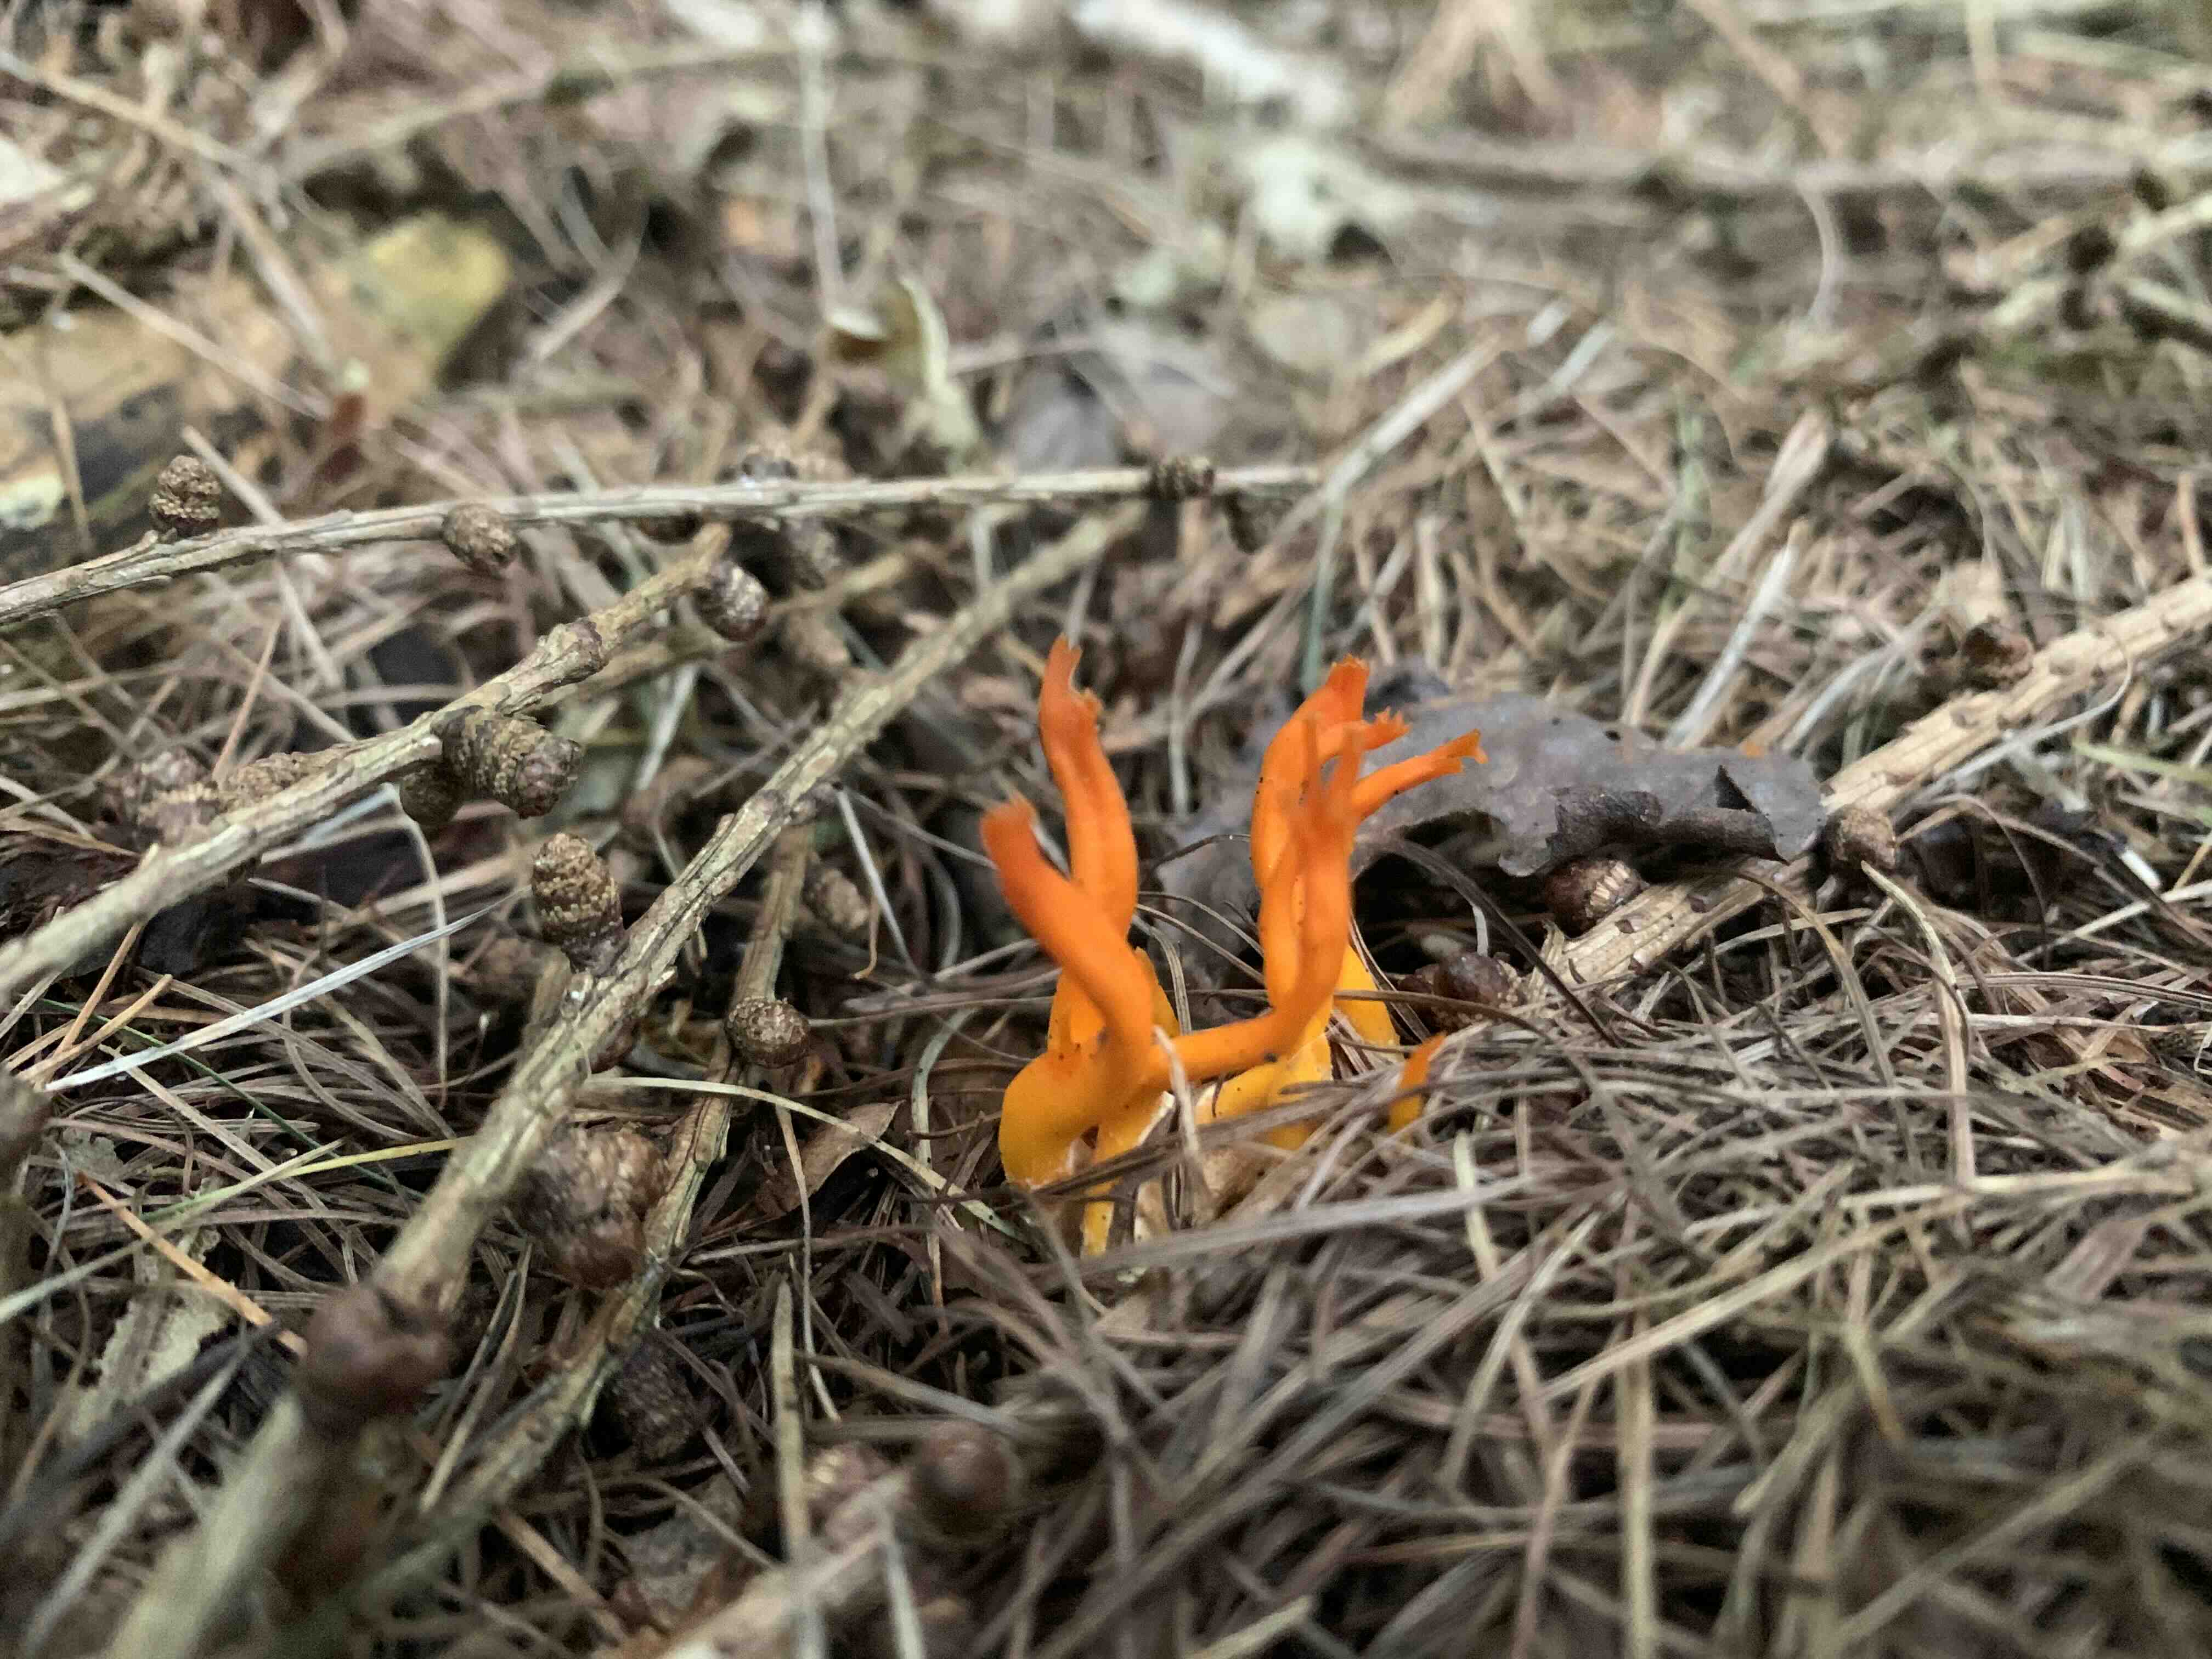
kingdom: Fungi
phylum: Basidiomycota
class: Dacrymycetes
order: Dacrymycetales
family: Dacrymycetaceae
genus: Calocera
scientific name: Calocera viscosa
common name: almindelig guldgaffel
